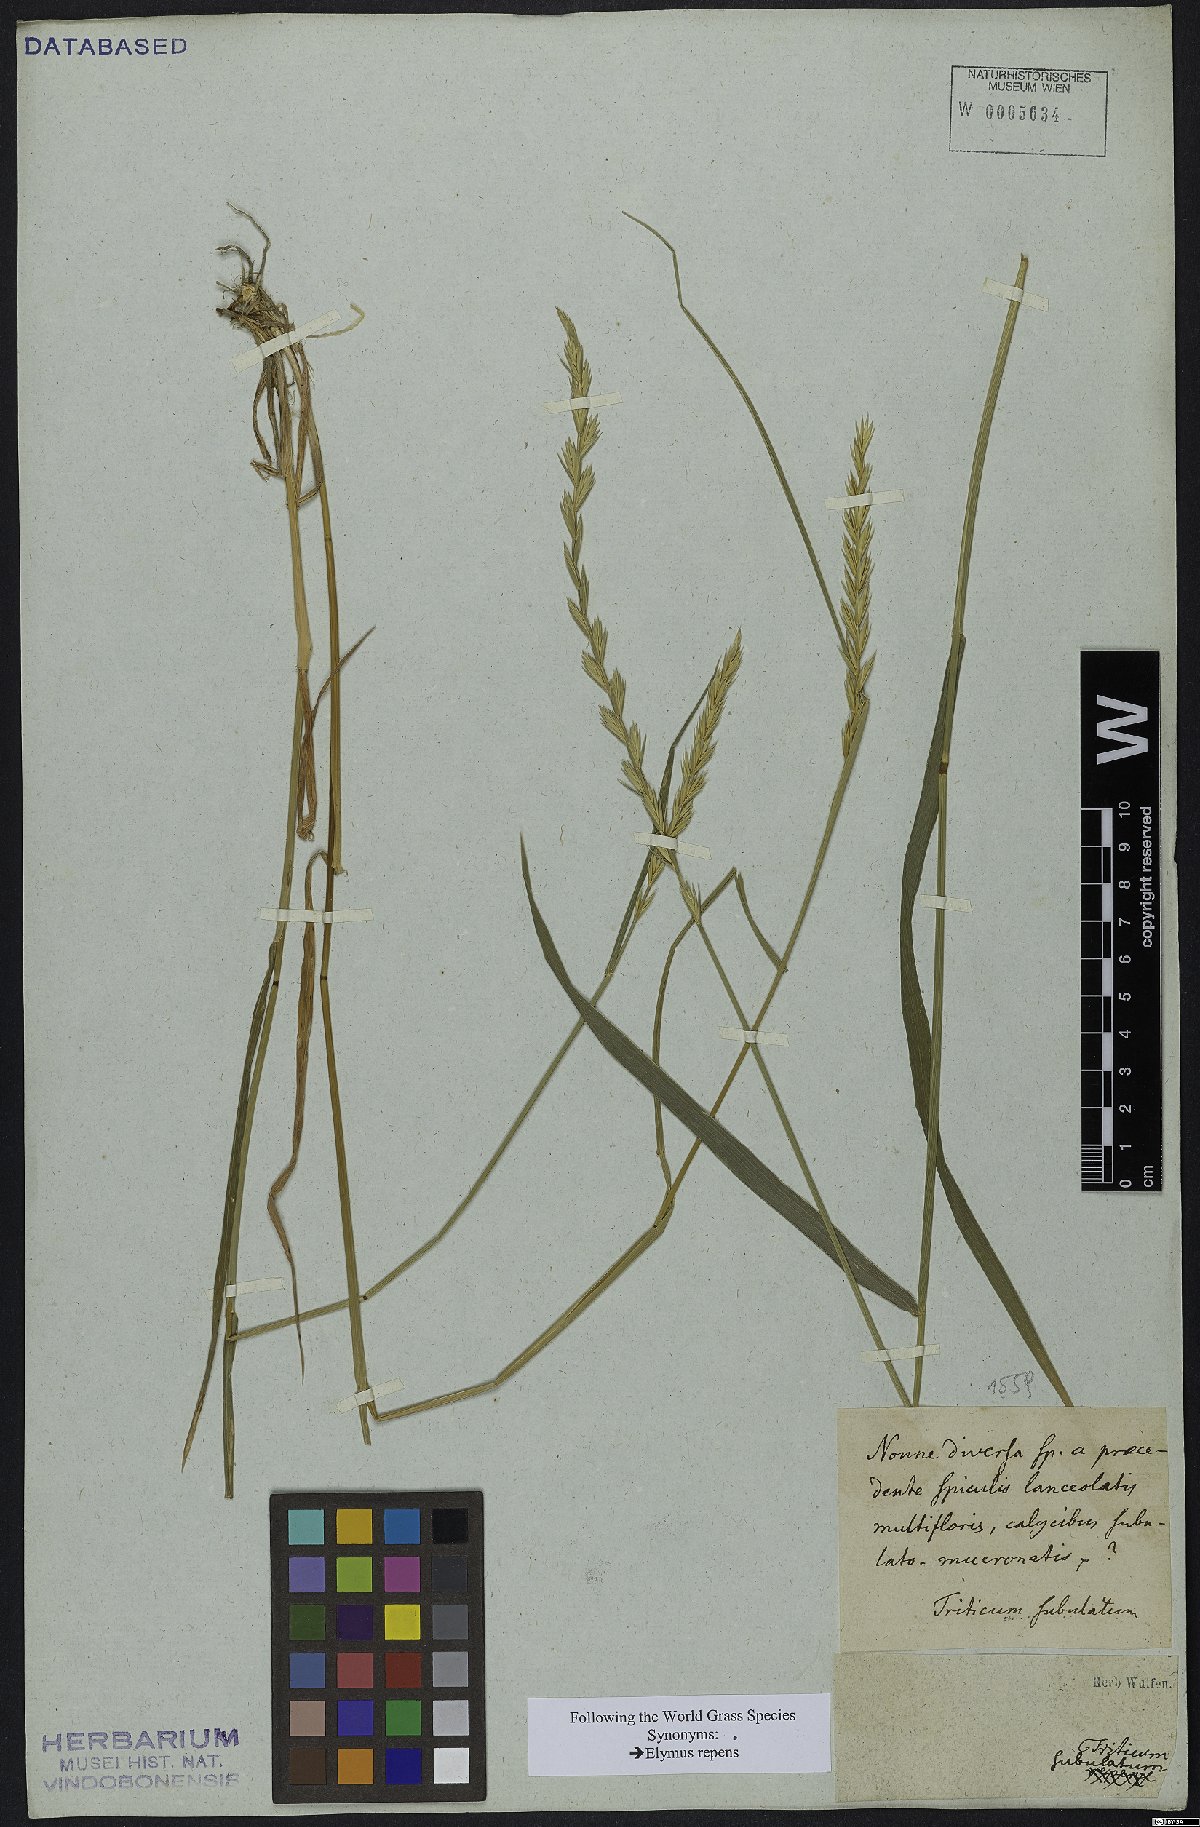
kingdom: Plantae
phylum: Tracheophyta
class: Liliopsida
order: Poales
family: Poaceae
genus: Elymus
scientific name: Elymus repens
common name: Quackgrass
